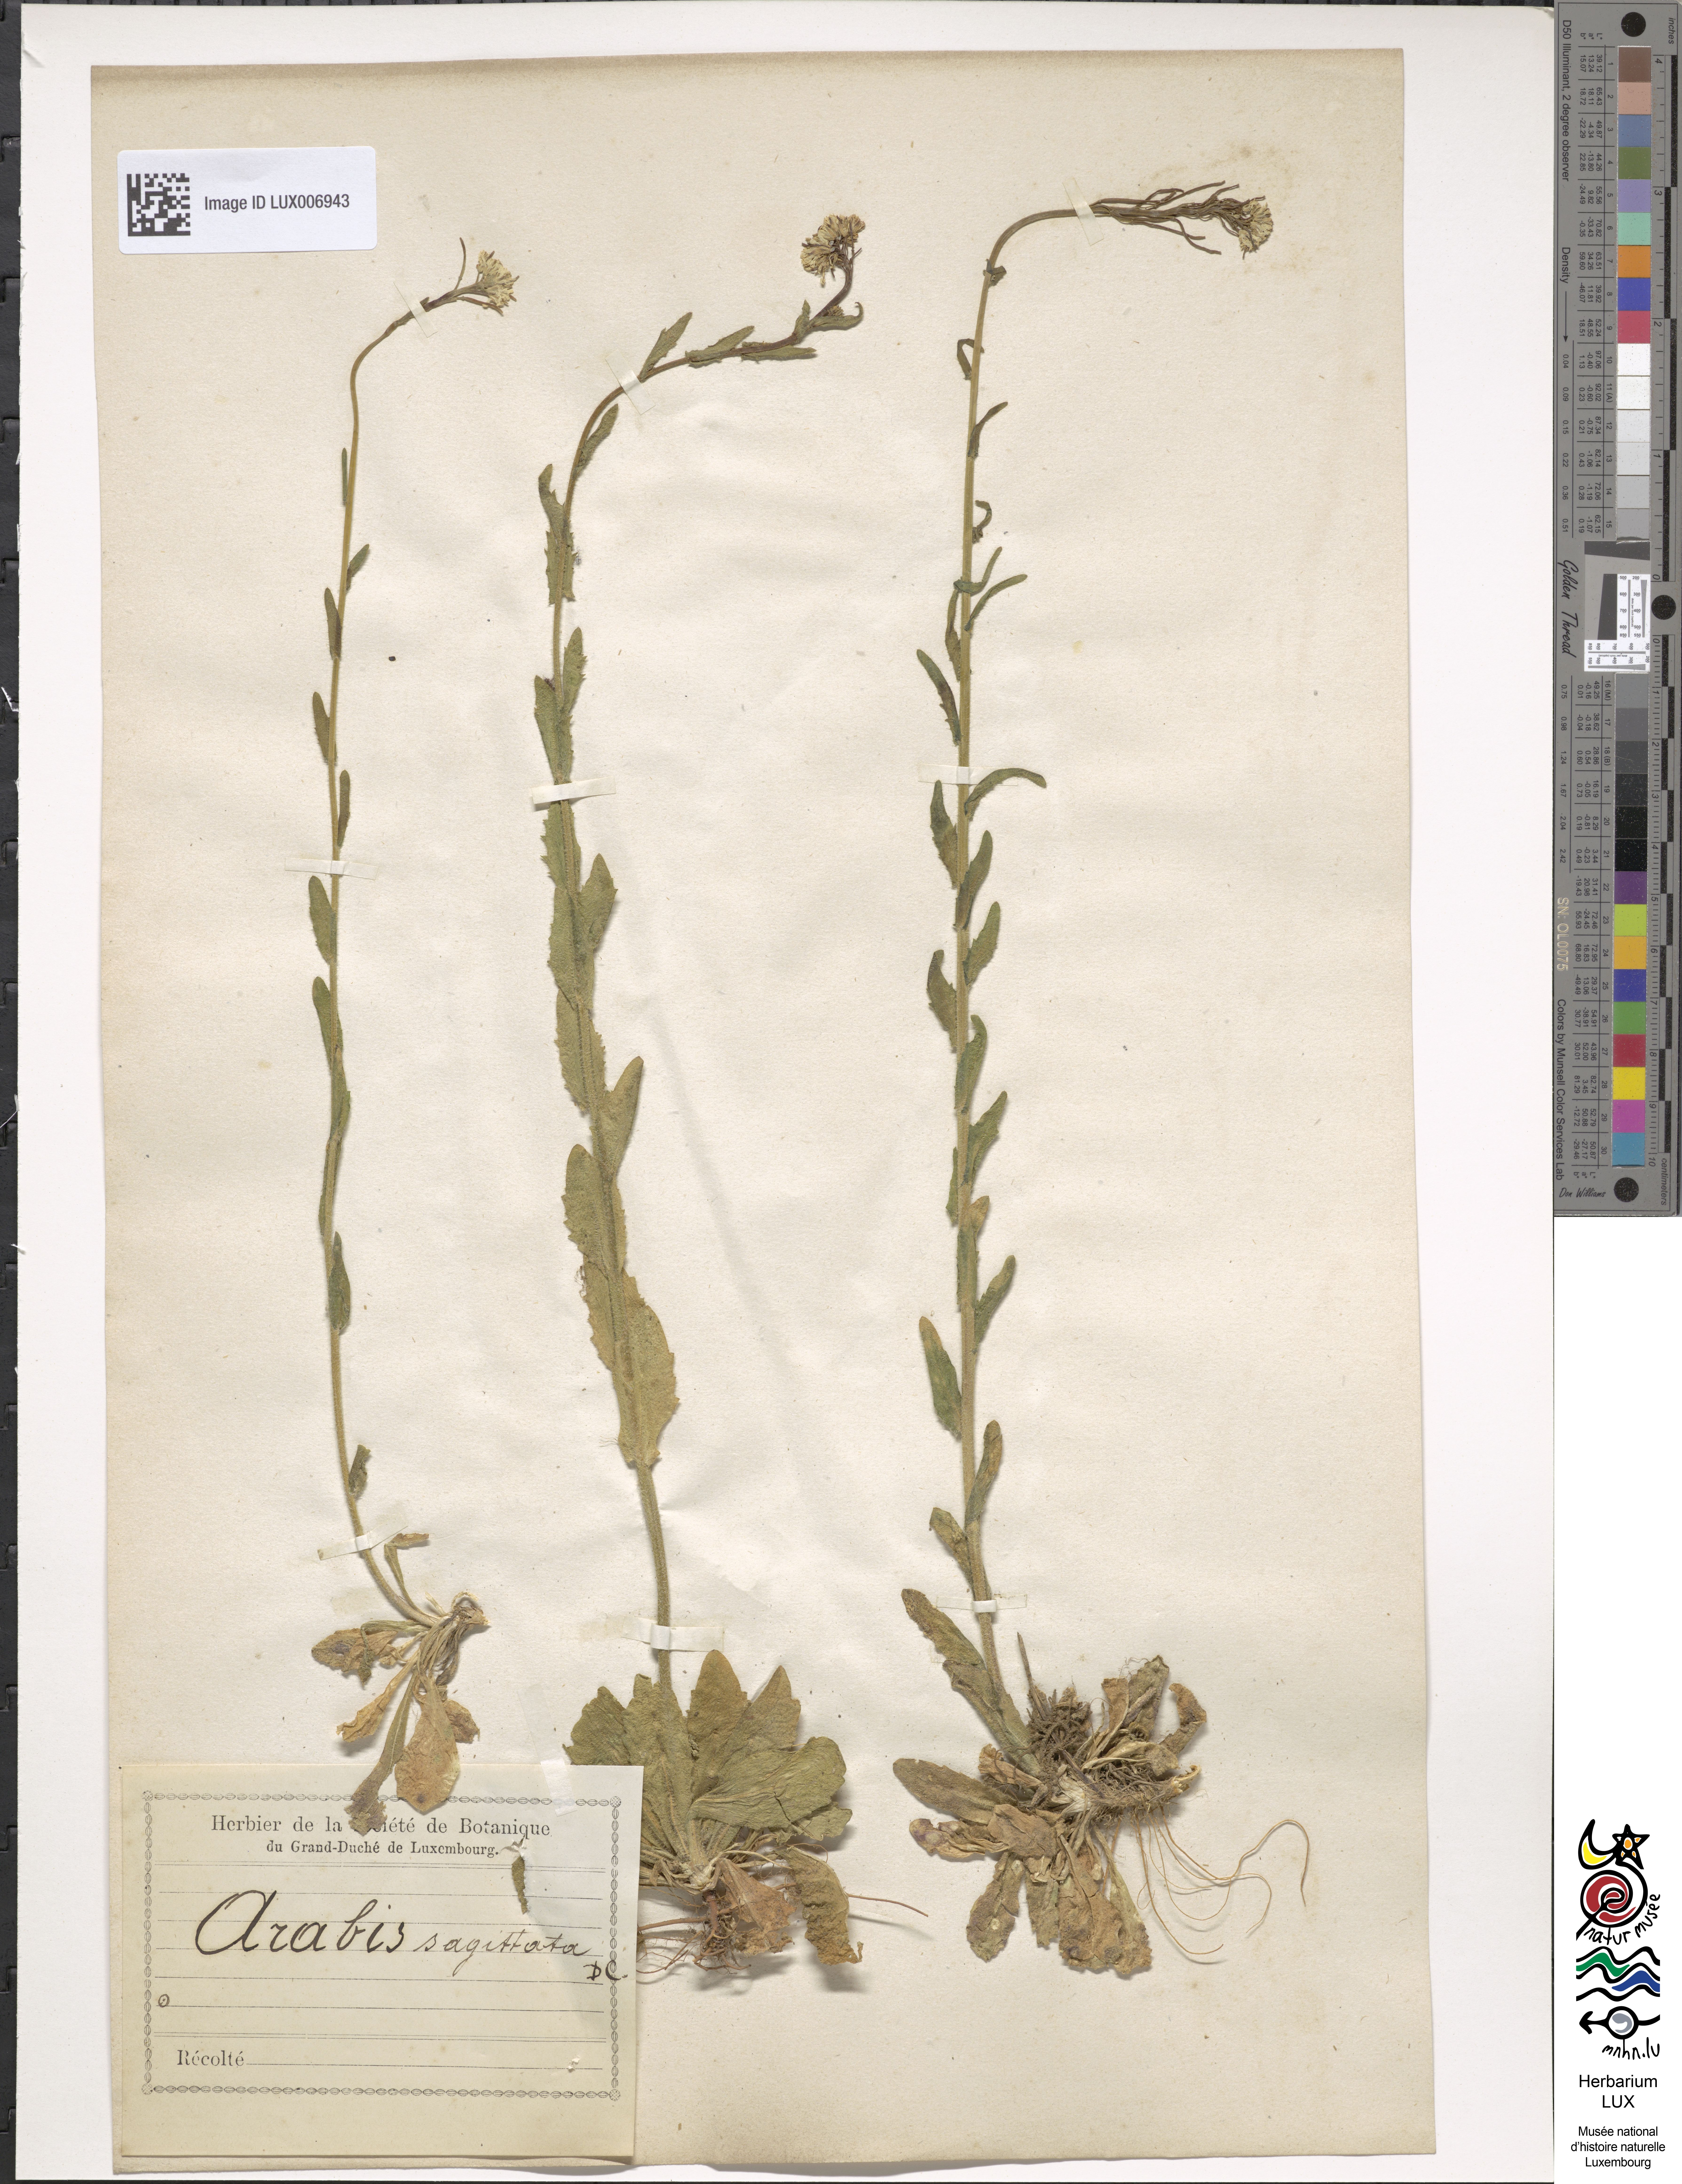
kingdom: Plantae
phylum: Tracheophyta
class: Magnoliopsida
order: Brassicales
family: Brassicaceae
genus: Arabis
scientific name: Arabis sagittata
